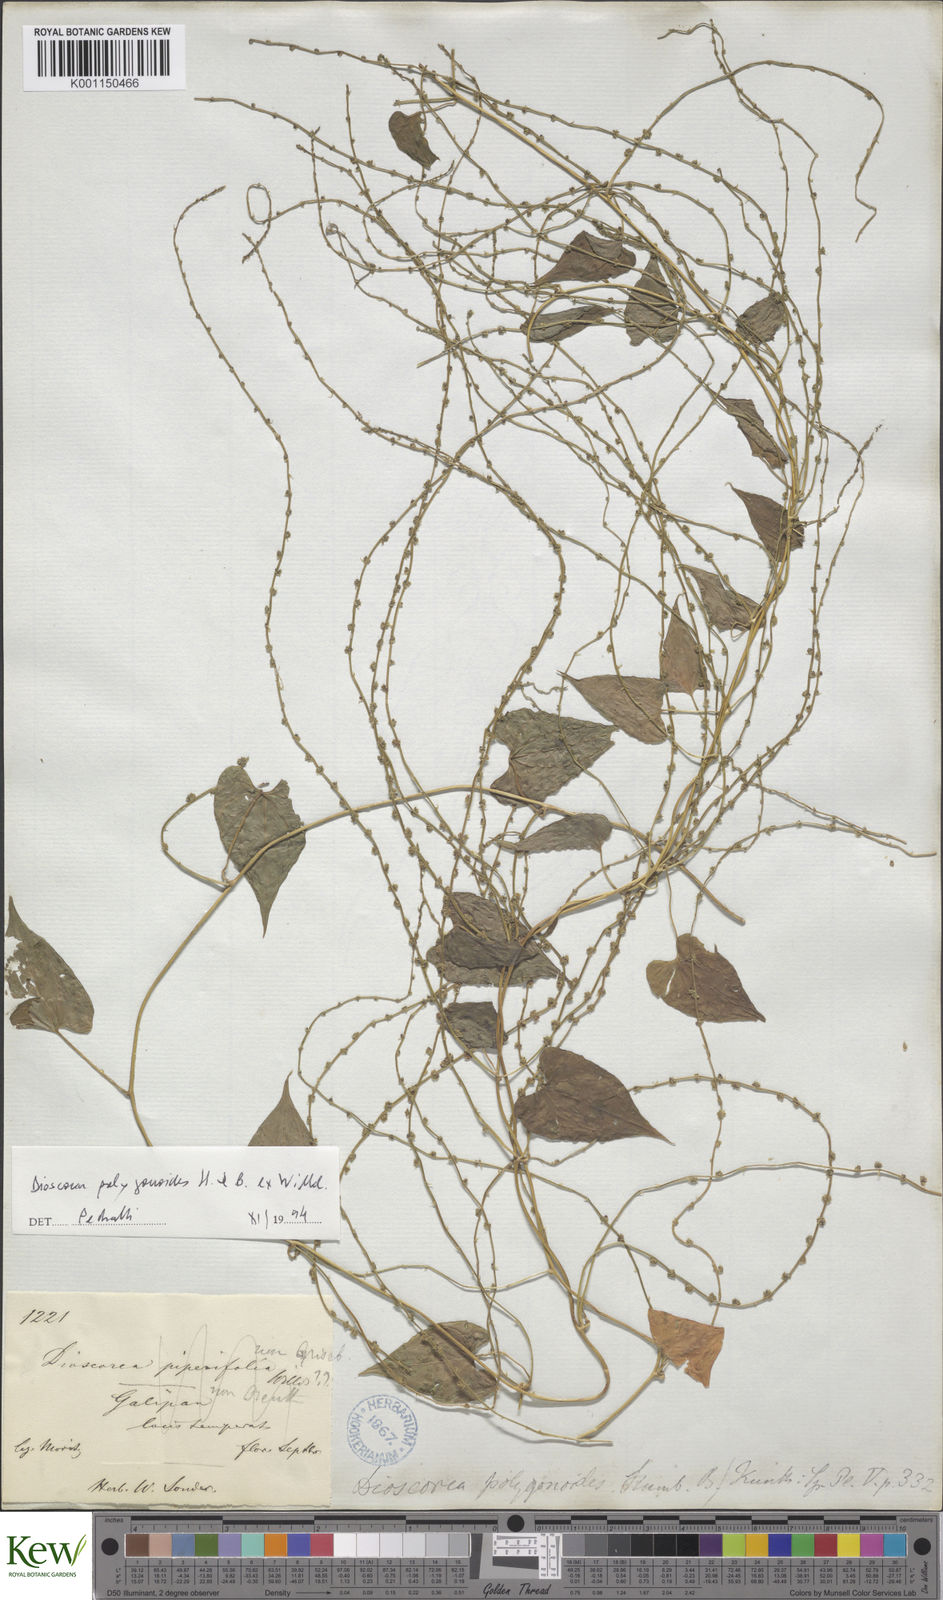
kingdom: Plantae
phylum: Tracheophyta
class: Liliopsida
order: Dioscoreales
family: Dioscoreaceae
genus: Dioscorea
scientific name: Dioscorea polygonoides
